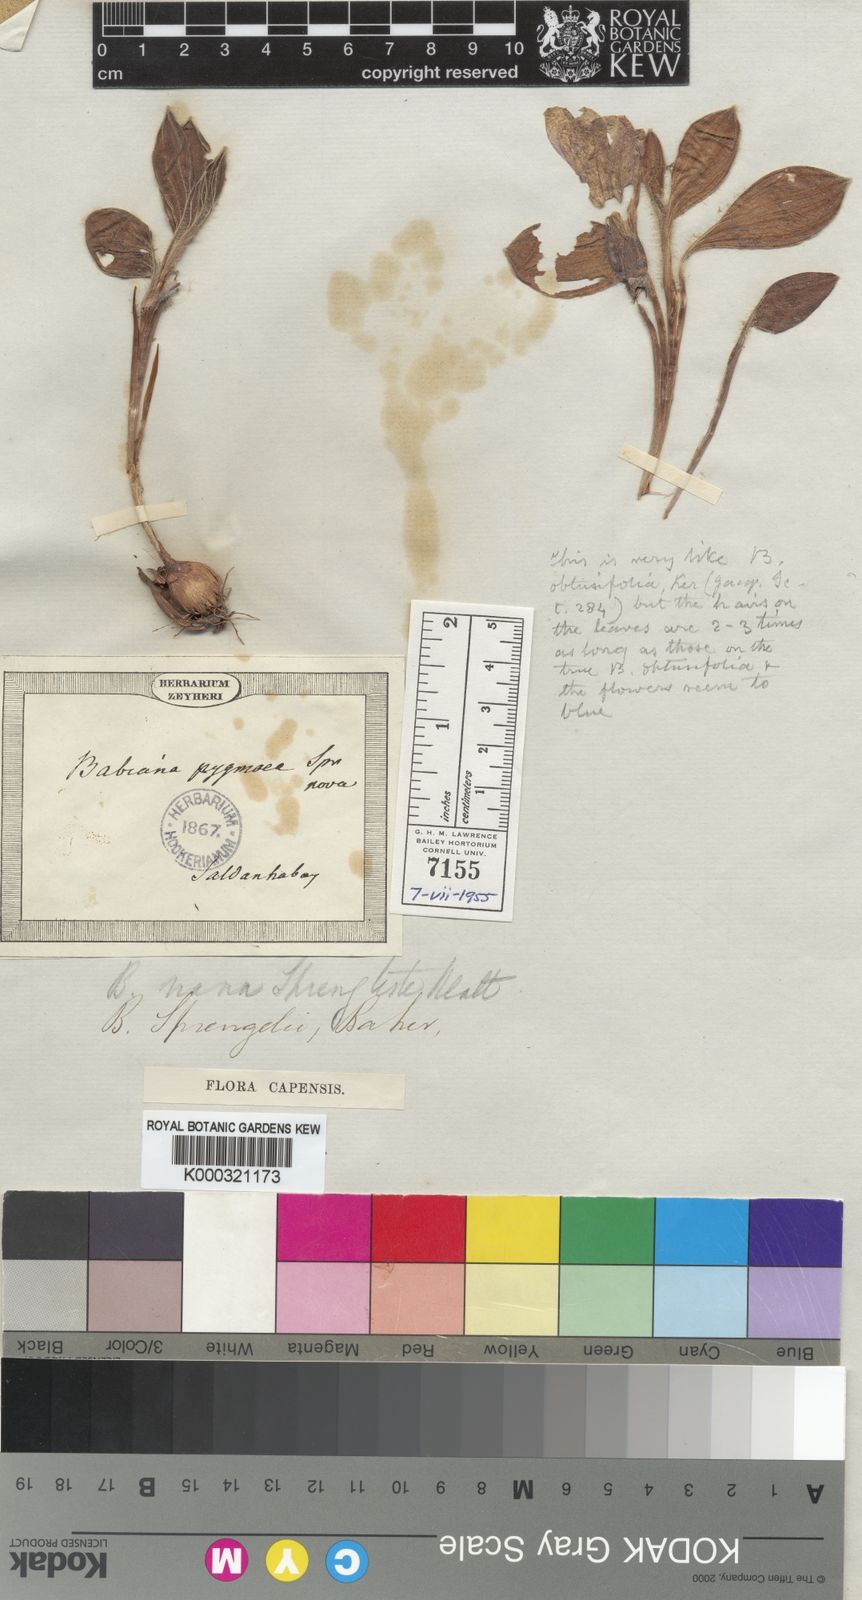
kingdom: Plantae
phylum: Tracheophyta
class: Liliopsida
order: Asparagales
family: Iridaceae
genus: Babiana
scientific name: Babiana nana
